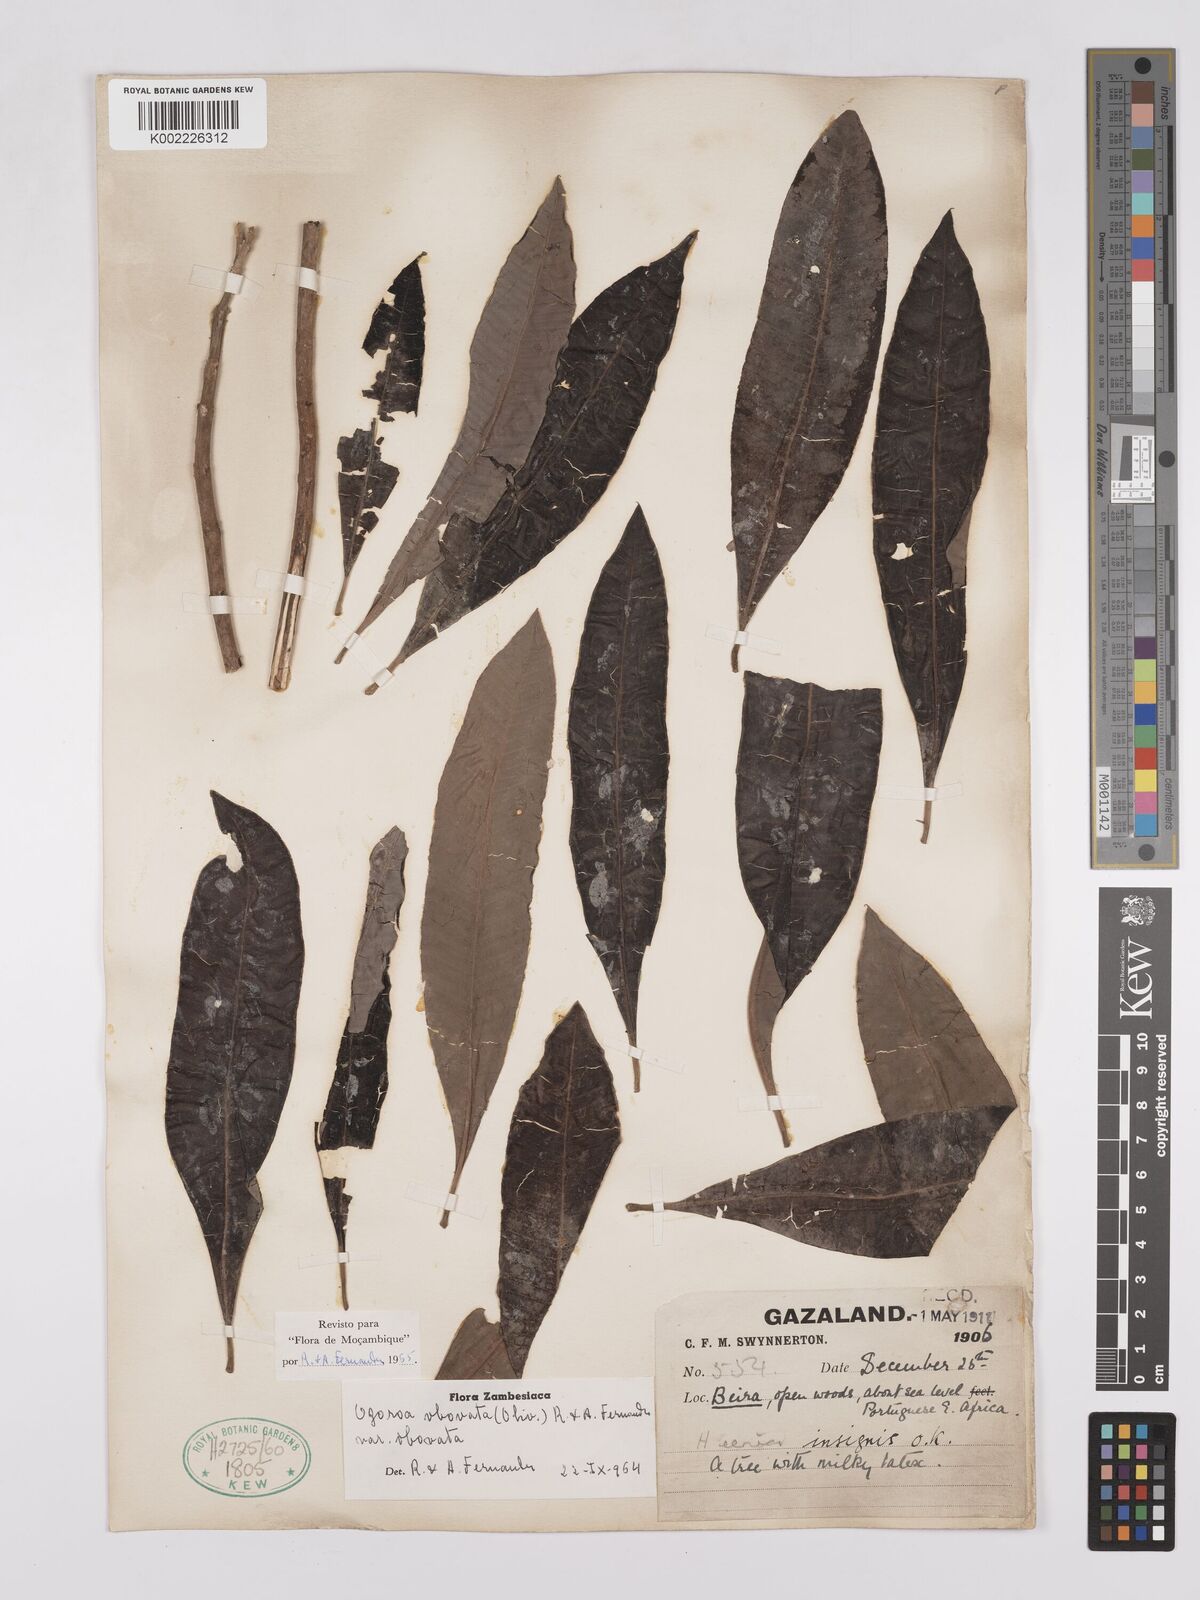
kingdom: Plantae
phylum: Tracheophyta
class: Magnoliopsida
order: Sapindales
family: Anacardiaceae
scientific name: Anacardiaceae
